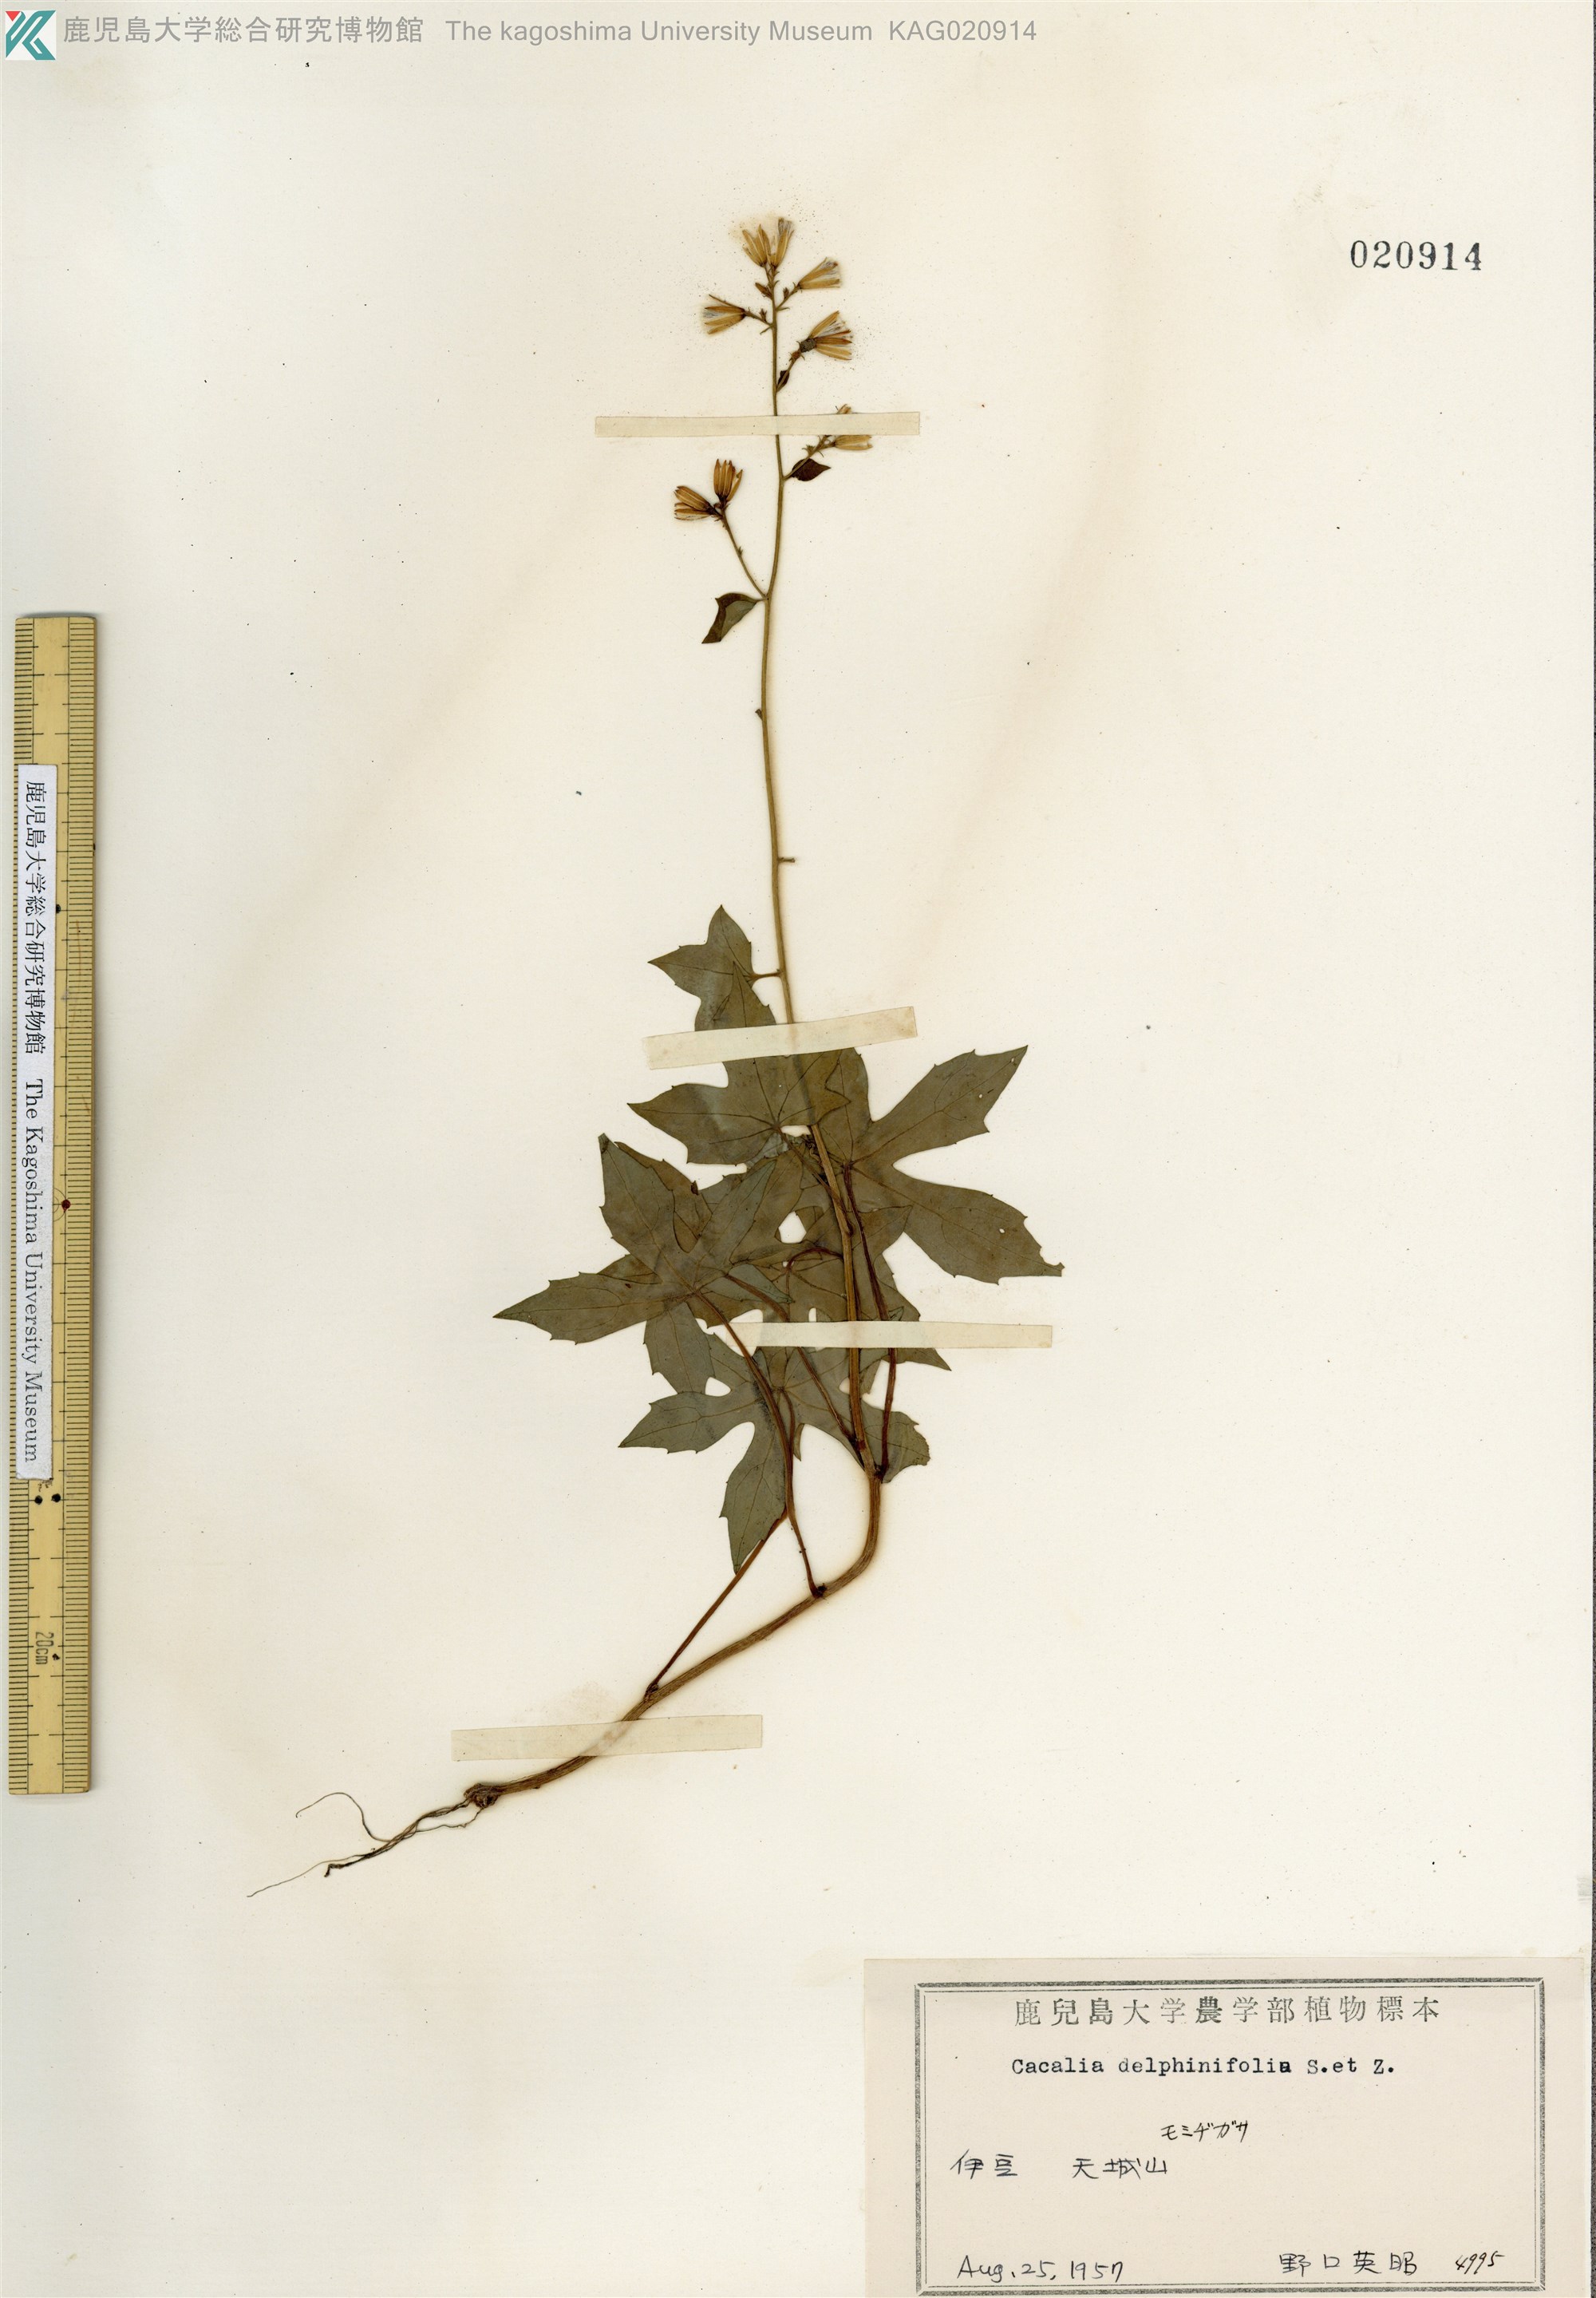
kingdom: Plantae
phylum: Tracheophyta
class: Magnoliopsida
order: Asterales
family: Asteraceae
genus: Japonicalia
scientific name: Japonicalia delphiniifolia
